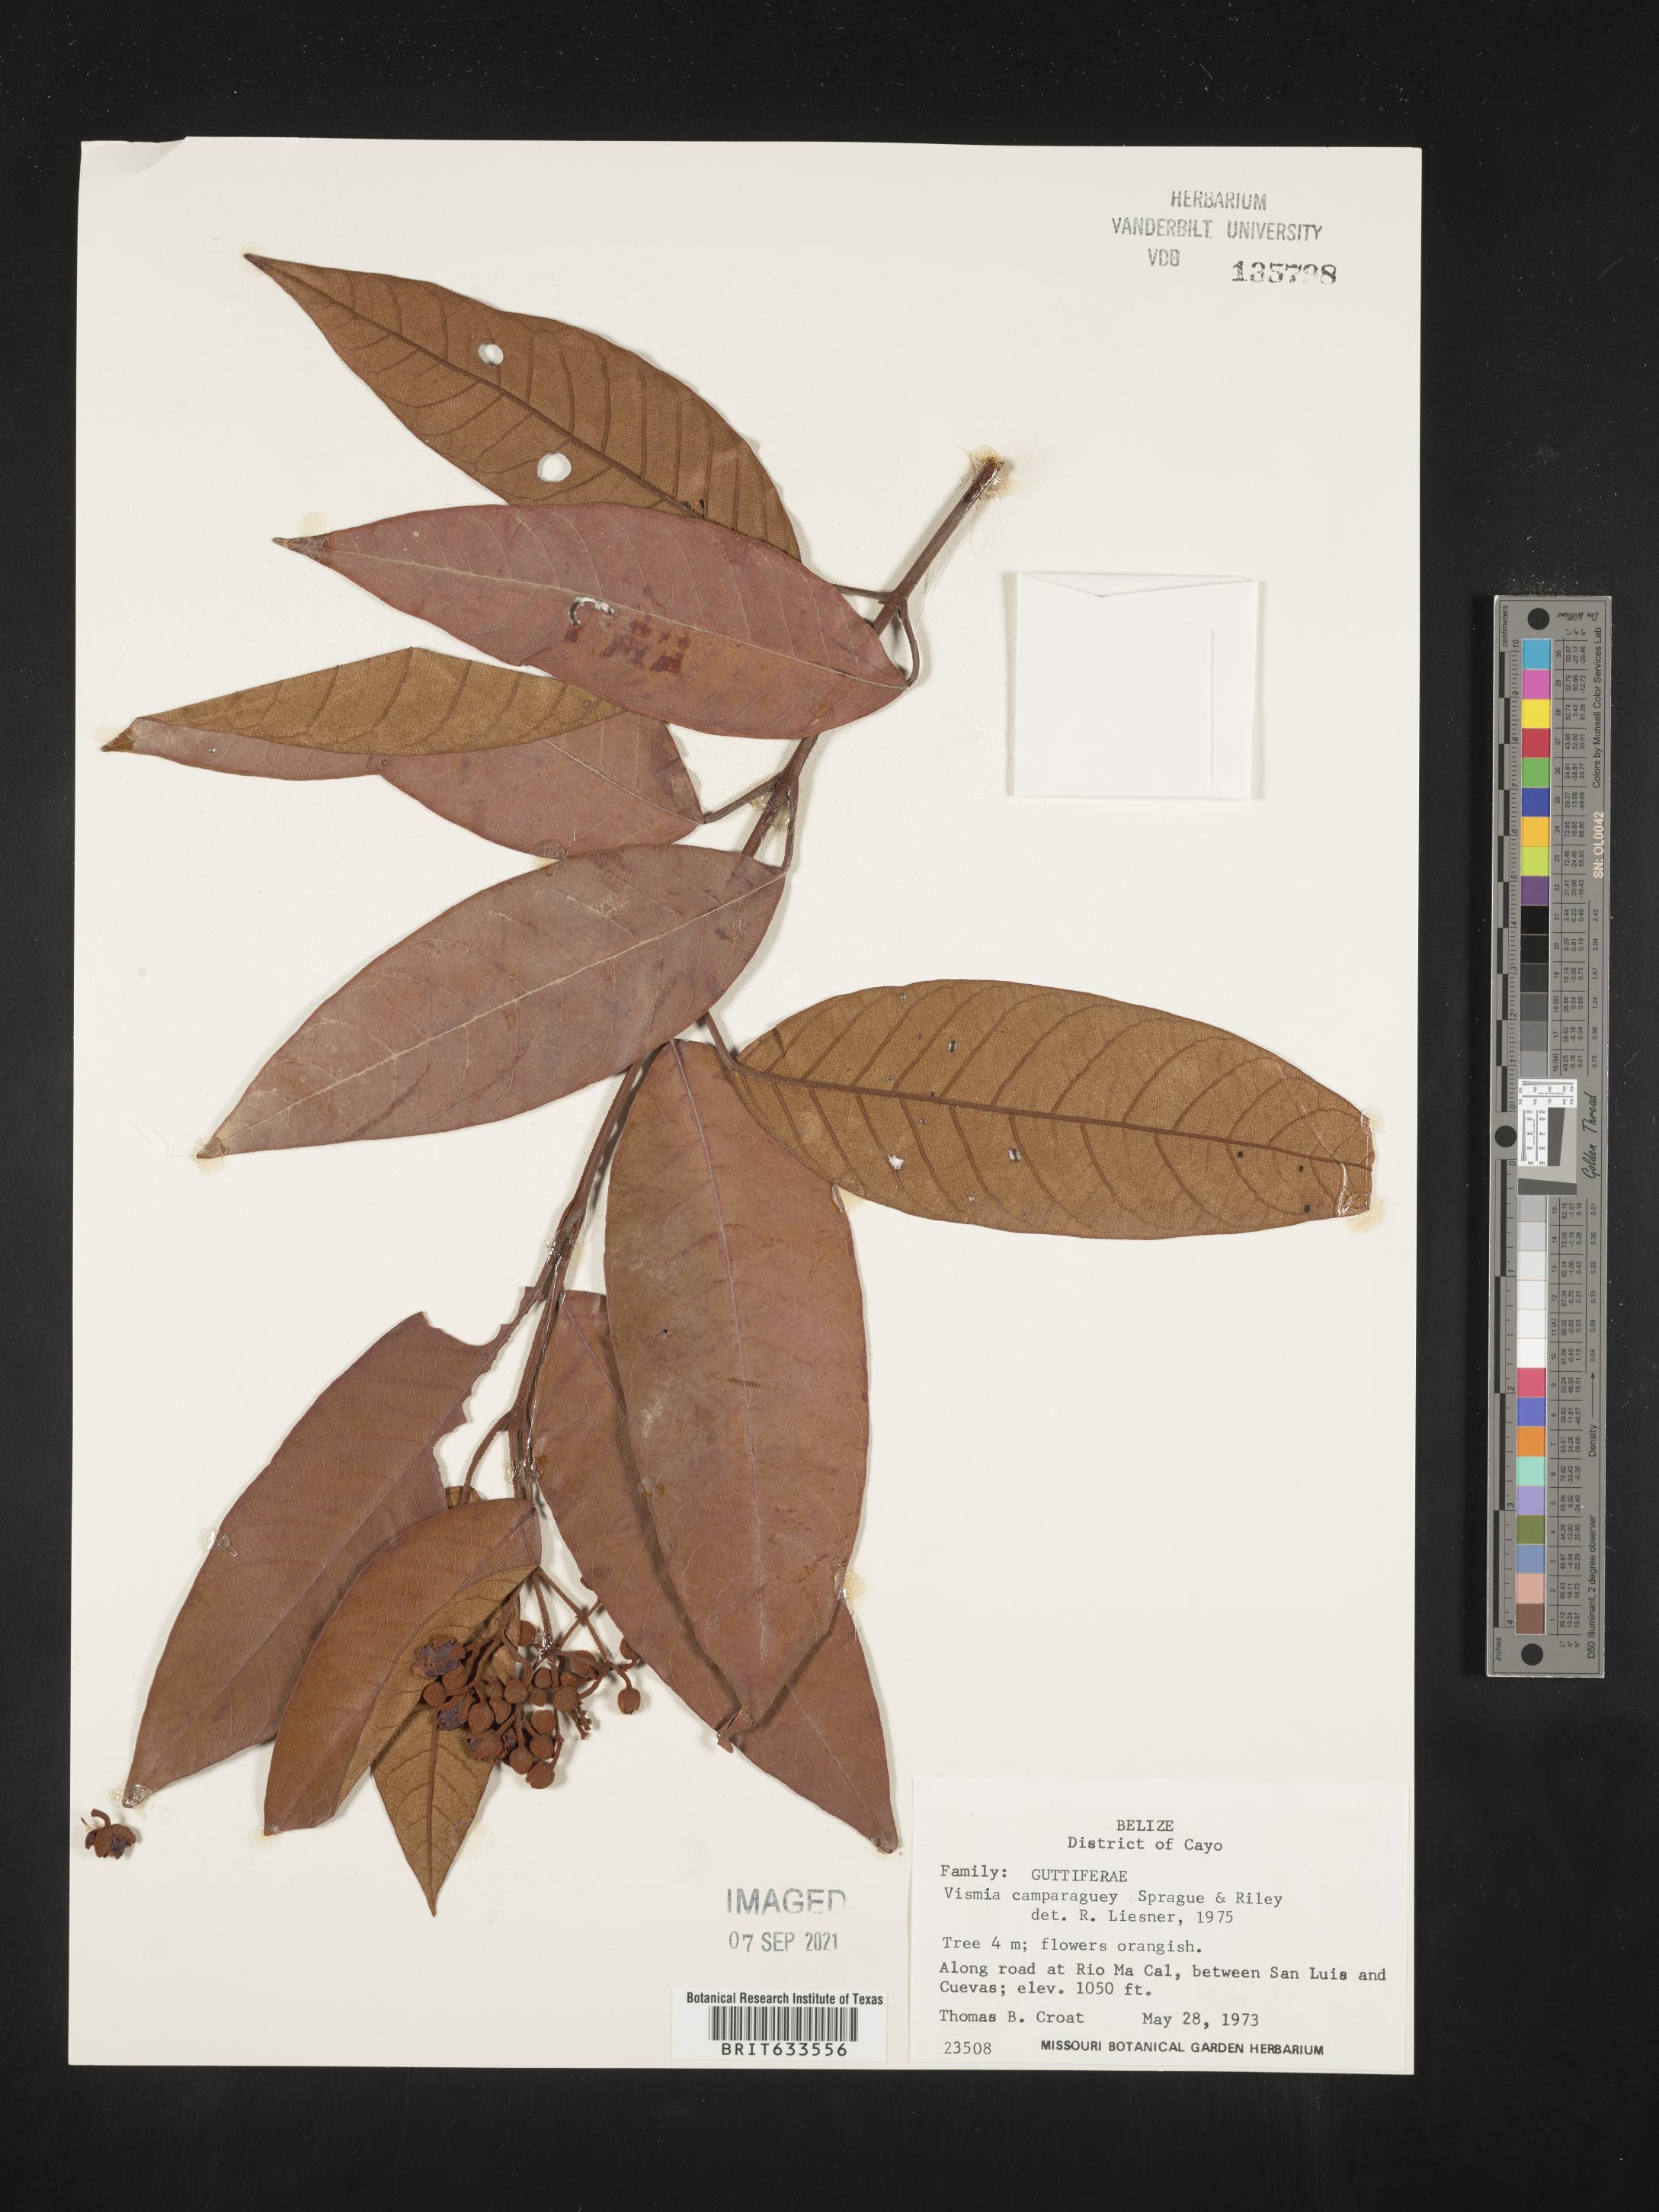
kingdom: Plantae
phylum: Tracheophyta
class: Magnoliopsida
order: Malpighiales
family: Hypericaceae
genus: Vismia
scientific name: Vismia
